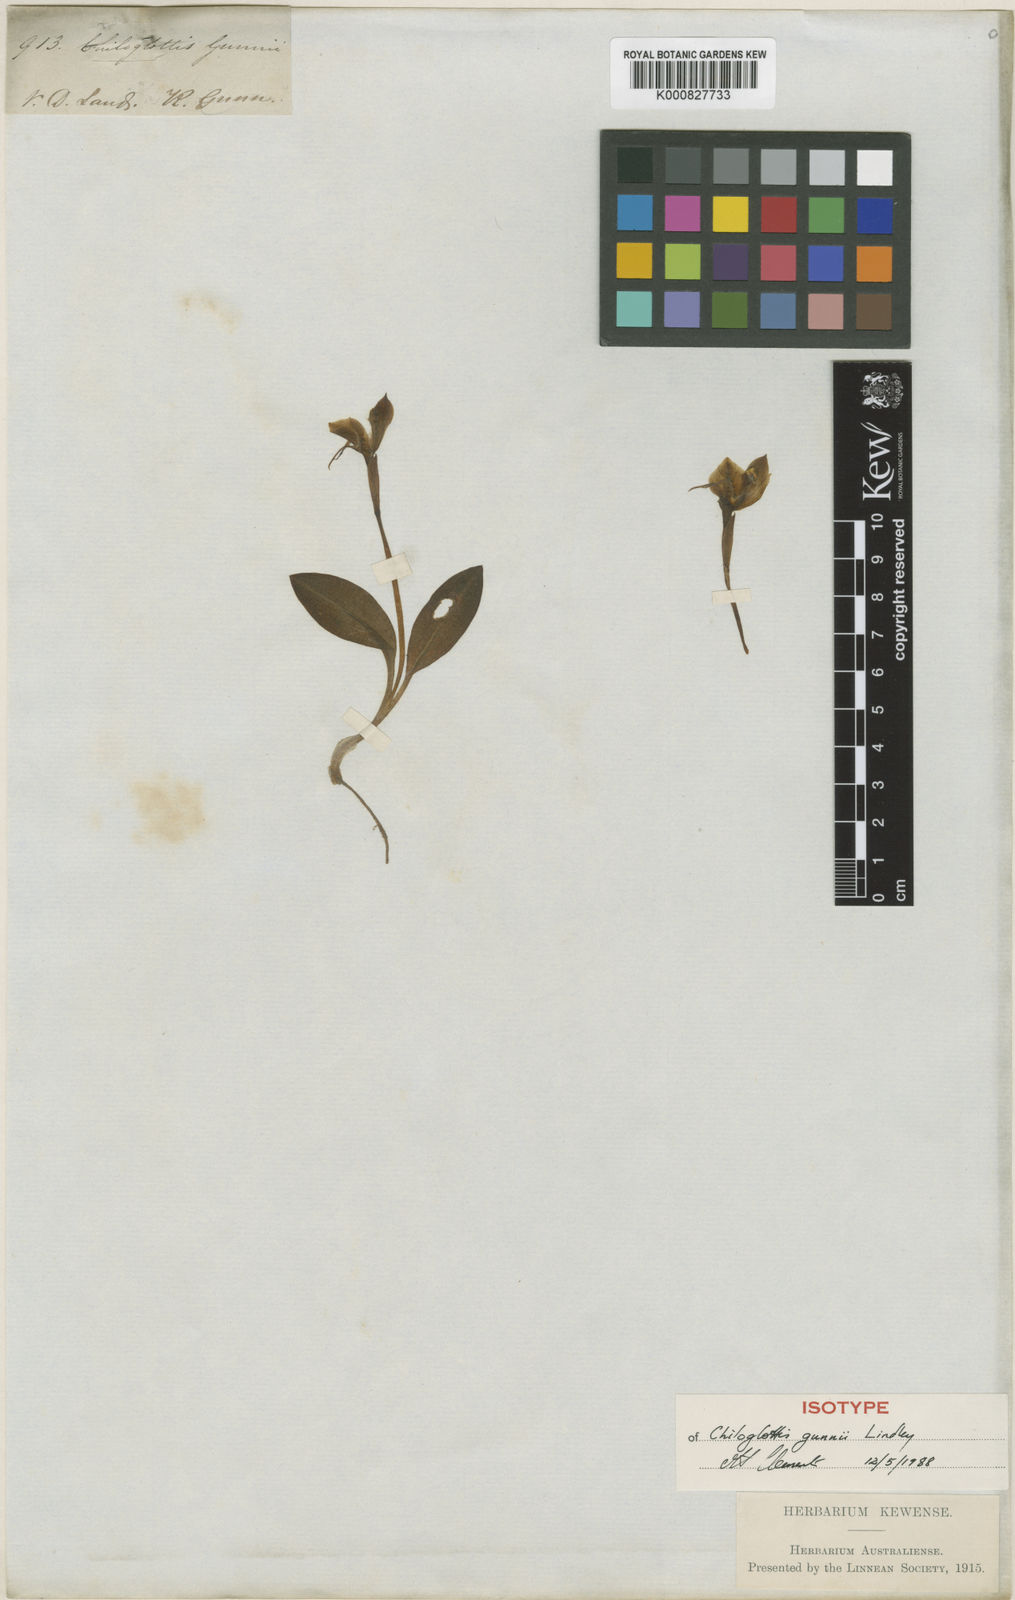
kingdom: Plantae
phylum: Tracheophyta
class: Liliopsida
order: Asparagales
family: Orchidaceae
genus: Chiloglottis
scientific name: Chiloglottis gunnii
